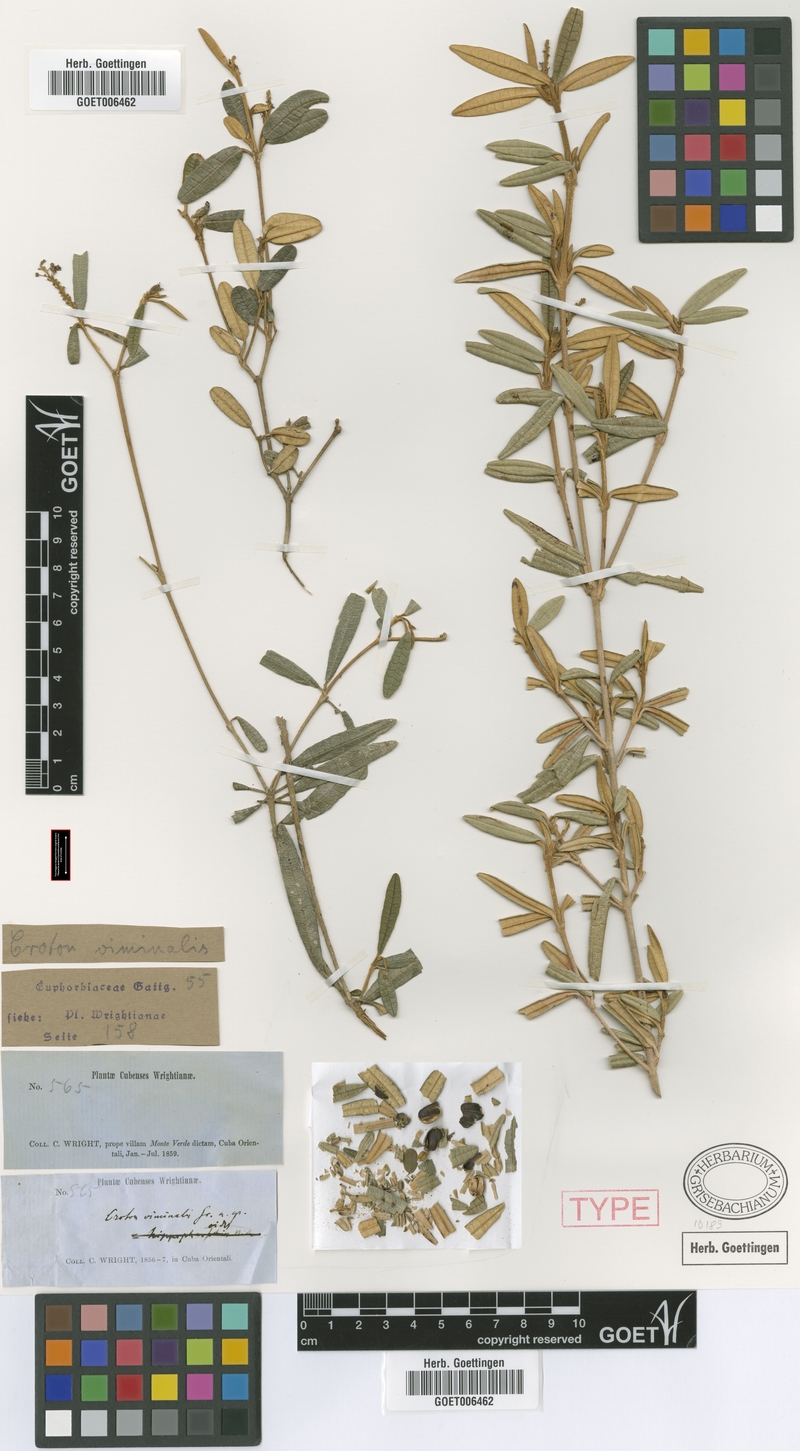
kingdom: Plantae
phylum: Tracheophyta
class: Magnoliopsida
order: Malpighiales
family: Euphorbiaceae
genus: Croton
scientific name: Croton viminalis
